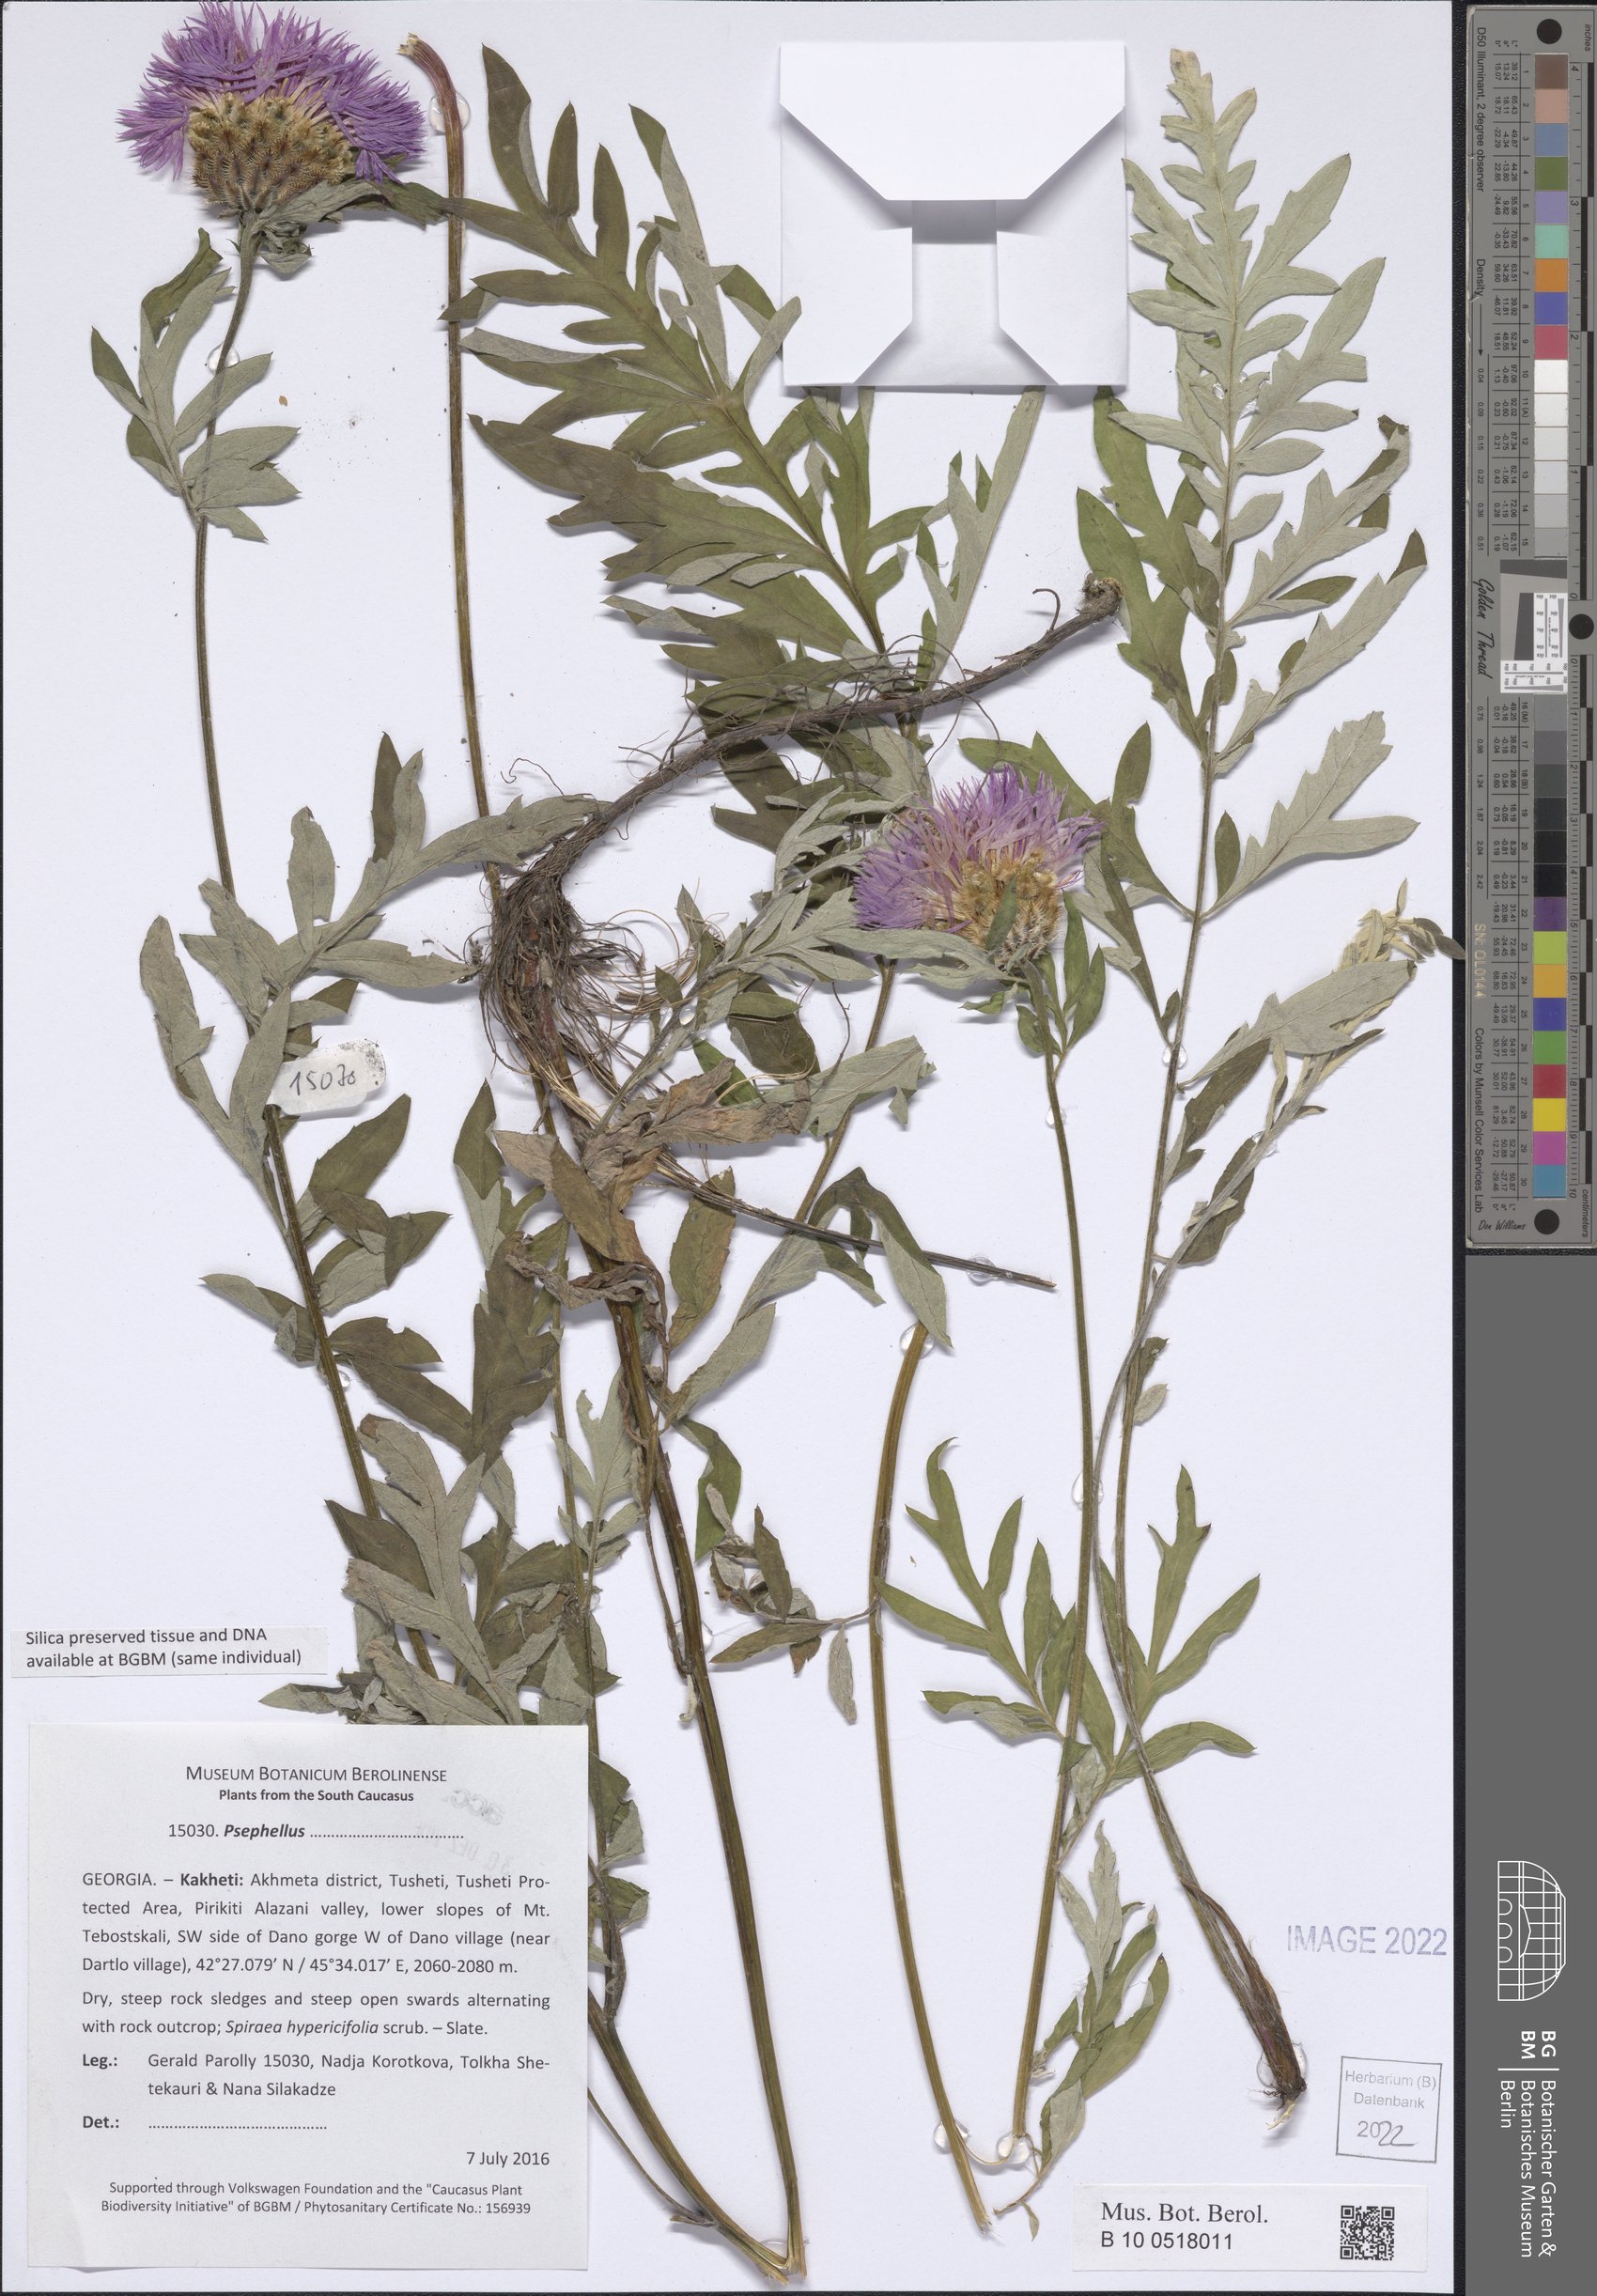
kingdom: Plantae
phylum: Tracheophyta
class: Magnoliopsida
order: Asterales
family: Asteraceae
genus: Psephellus
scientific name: Psephellus
